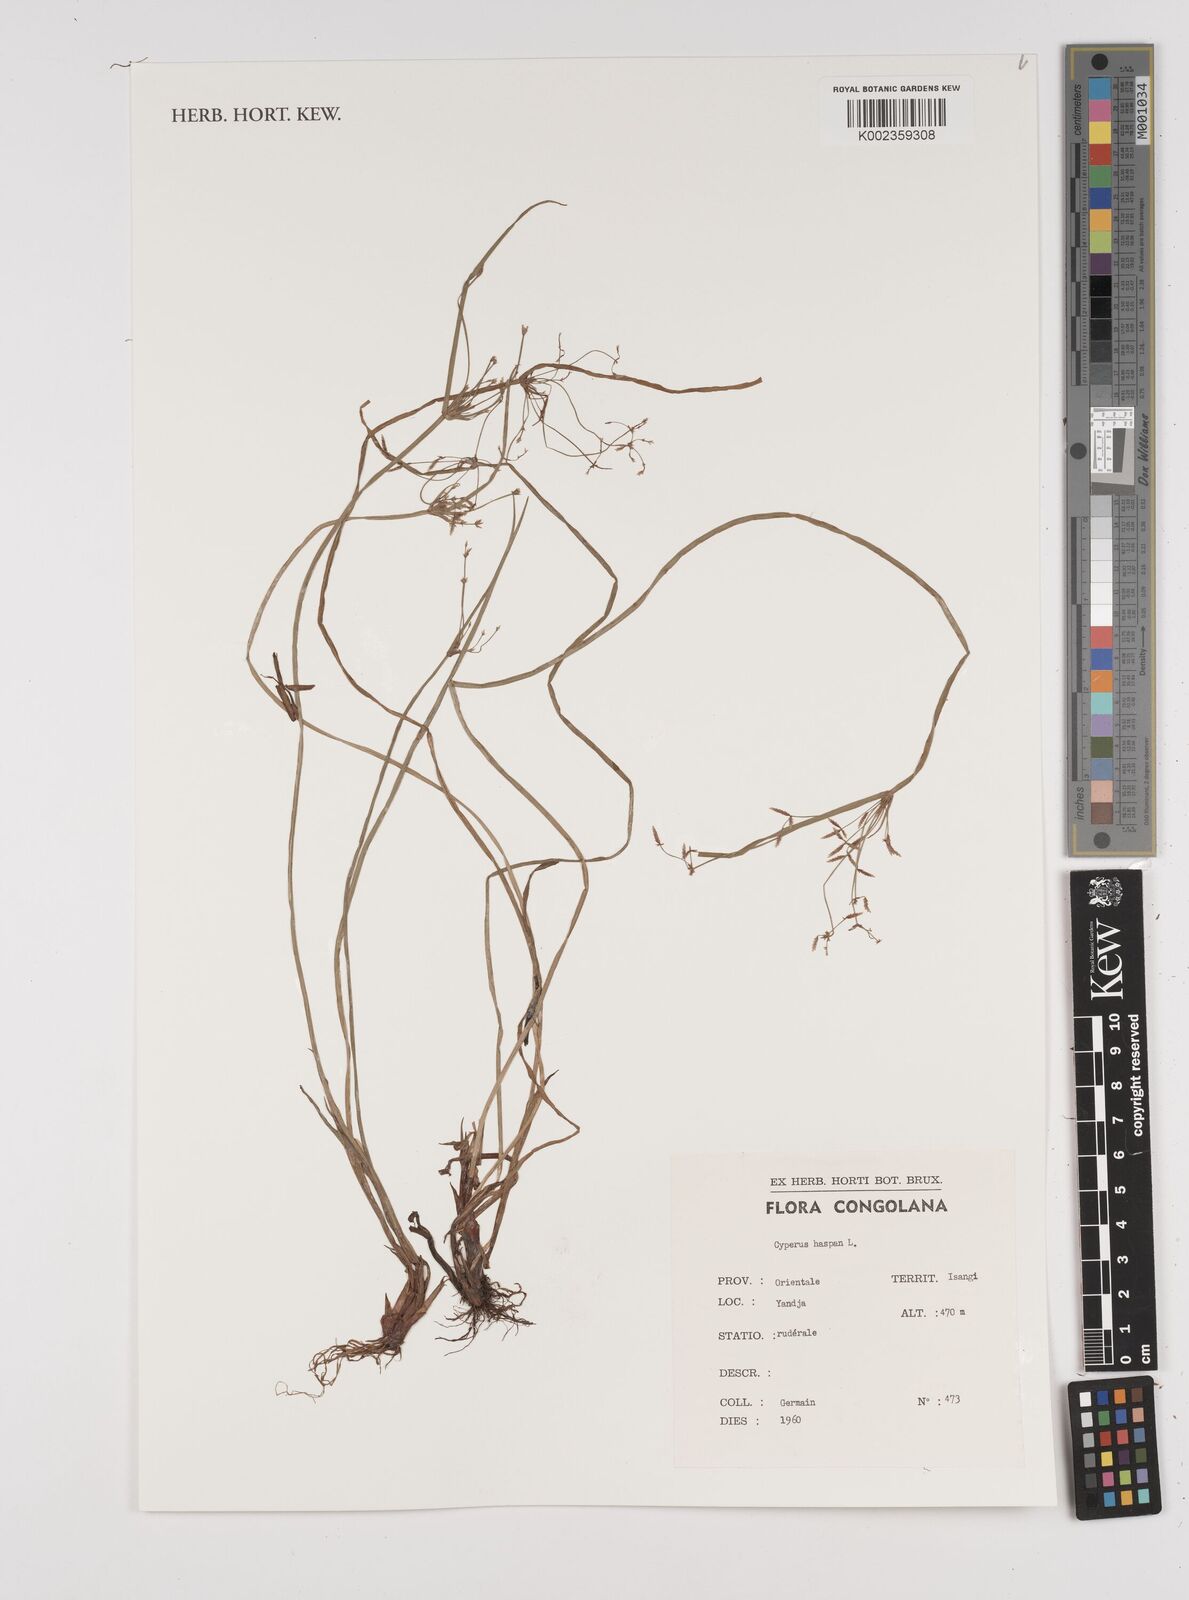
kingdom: Plantae
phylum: Tracheophyta
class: Liliopsida
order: Poales
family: Cyperaceae
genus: Cyperus
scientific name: Cyperus haspan
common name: Haspan flatsedge
